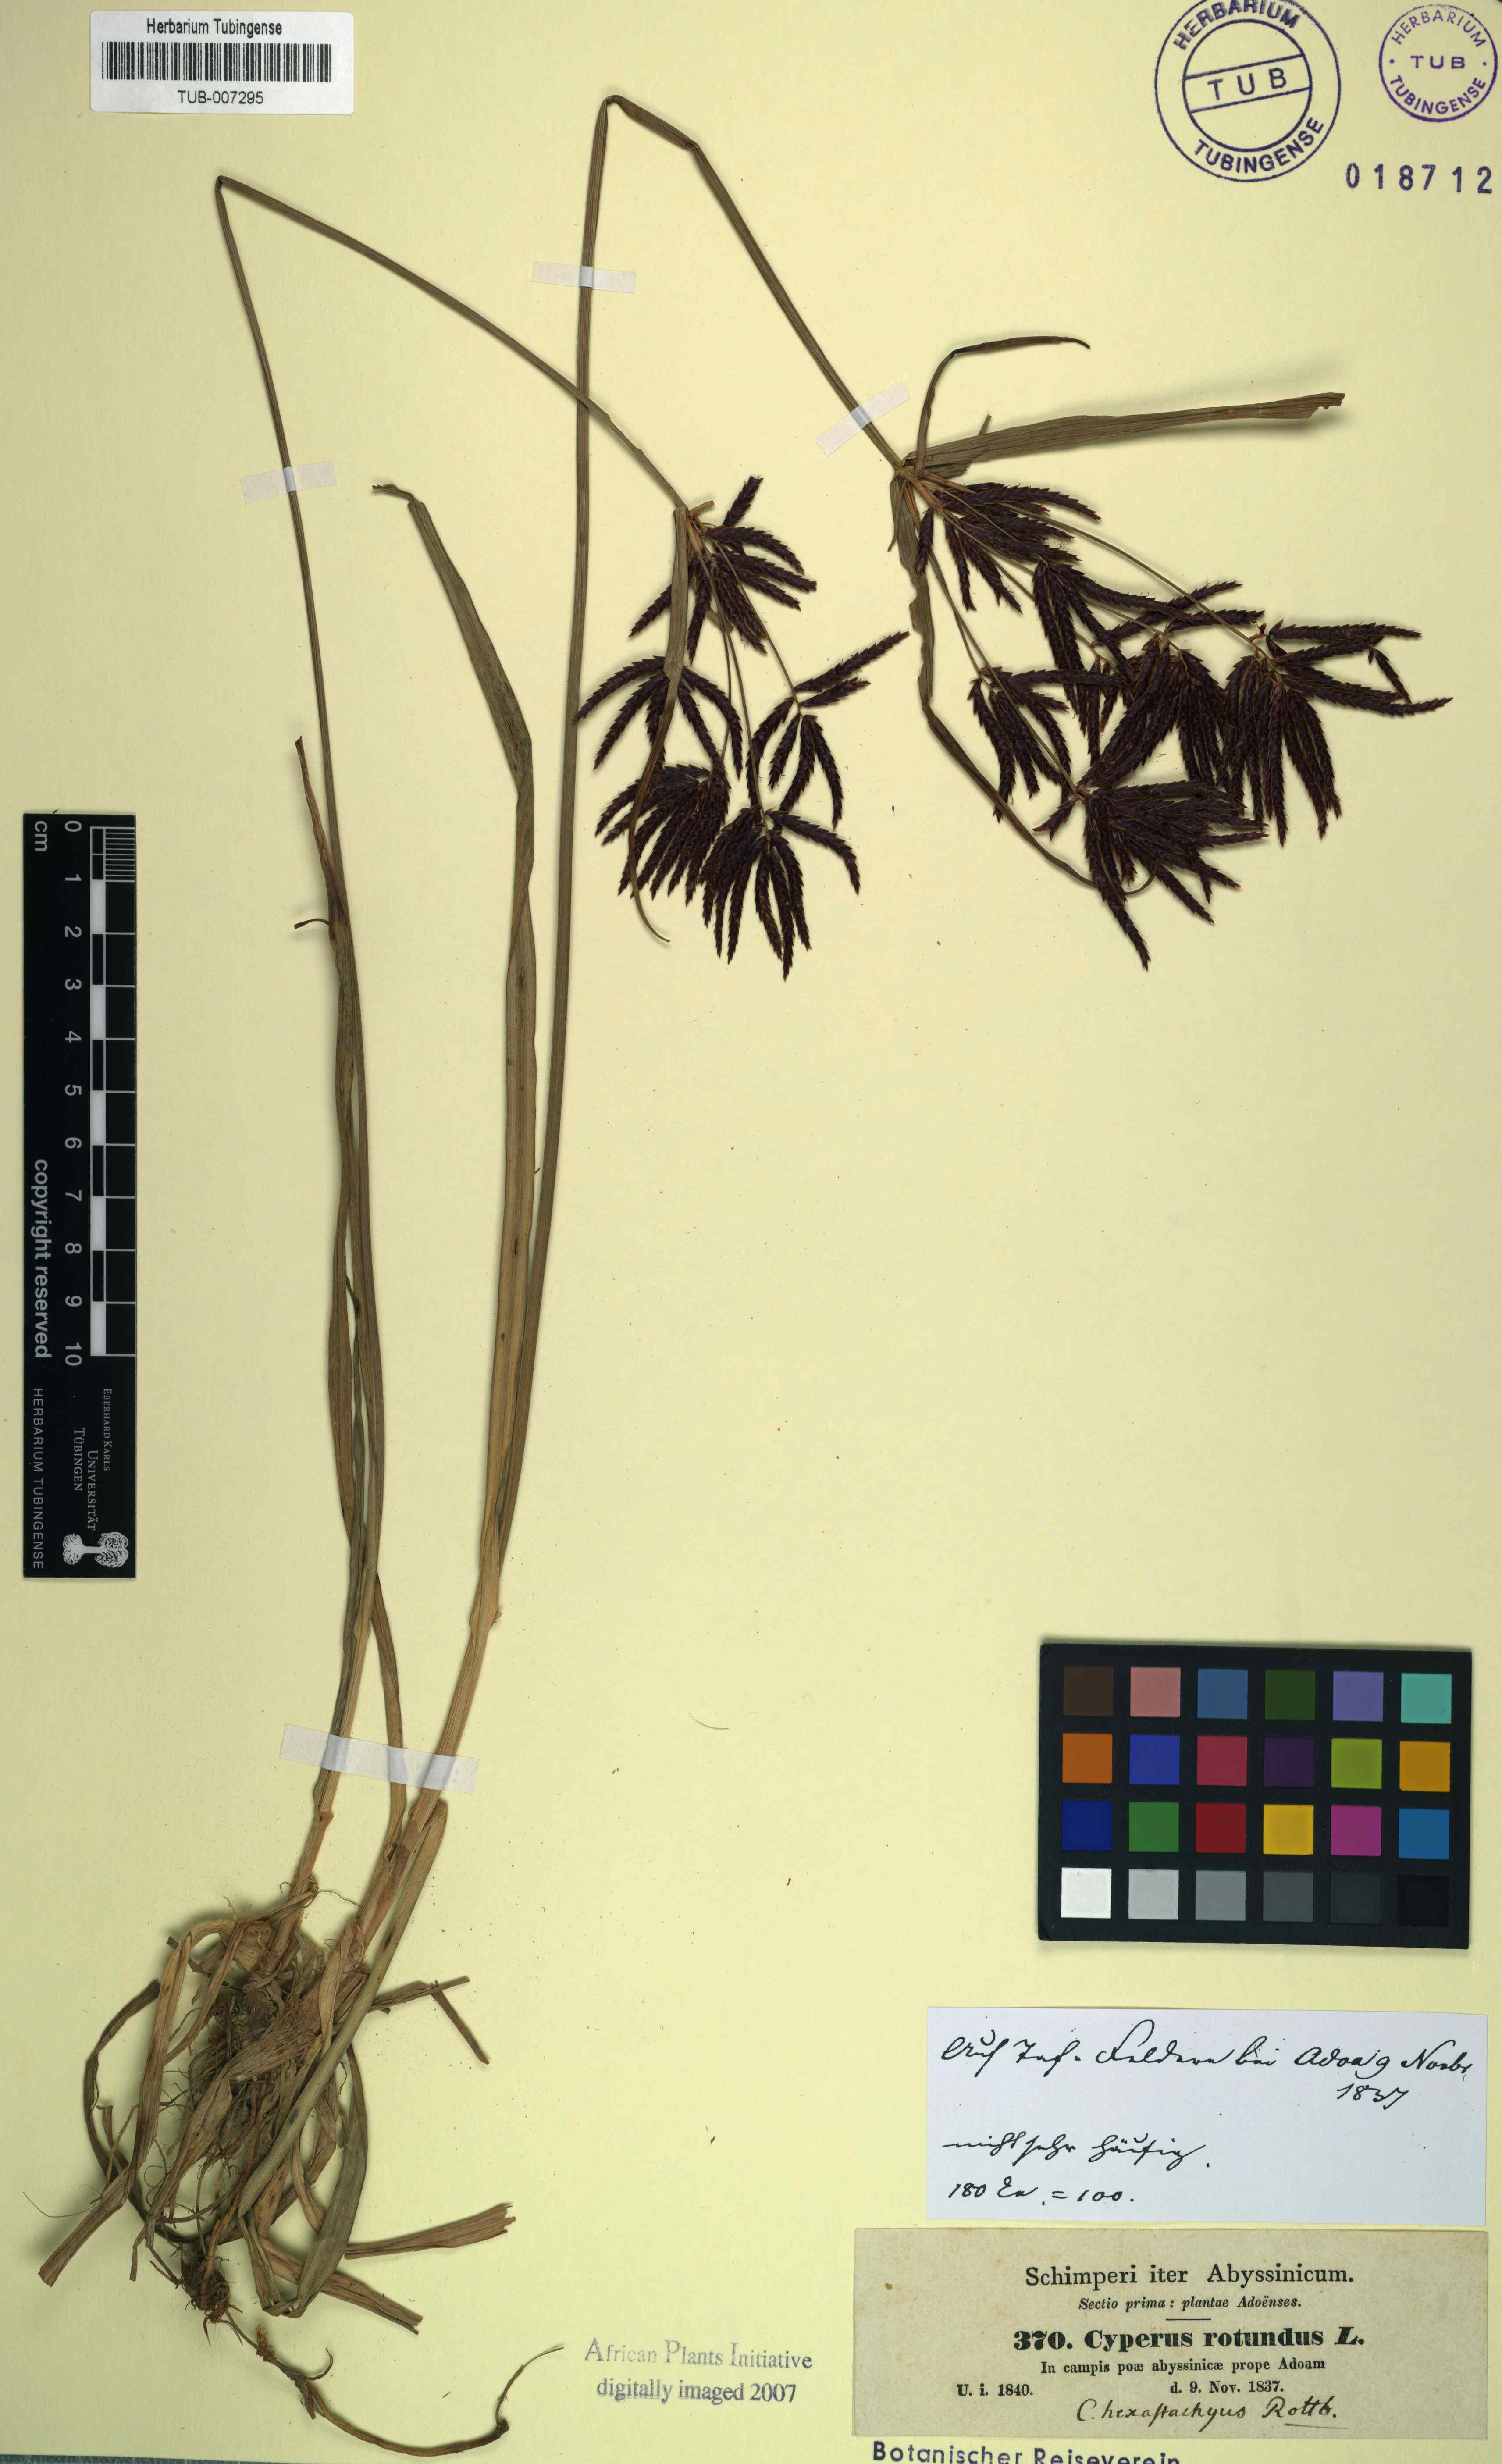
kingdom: Plantae
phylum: Tracheophyta
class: Liliopsida
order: Poales
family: Cyperaceae
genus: Cyperus
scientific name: Cyperus rotundus
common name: Nutgrass
